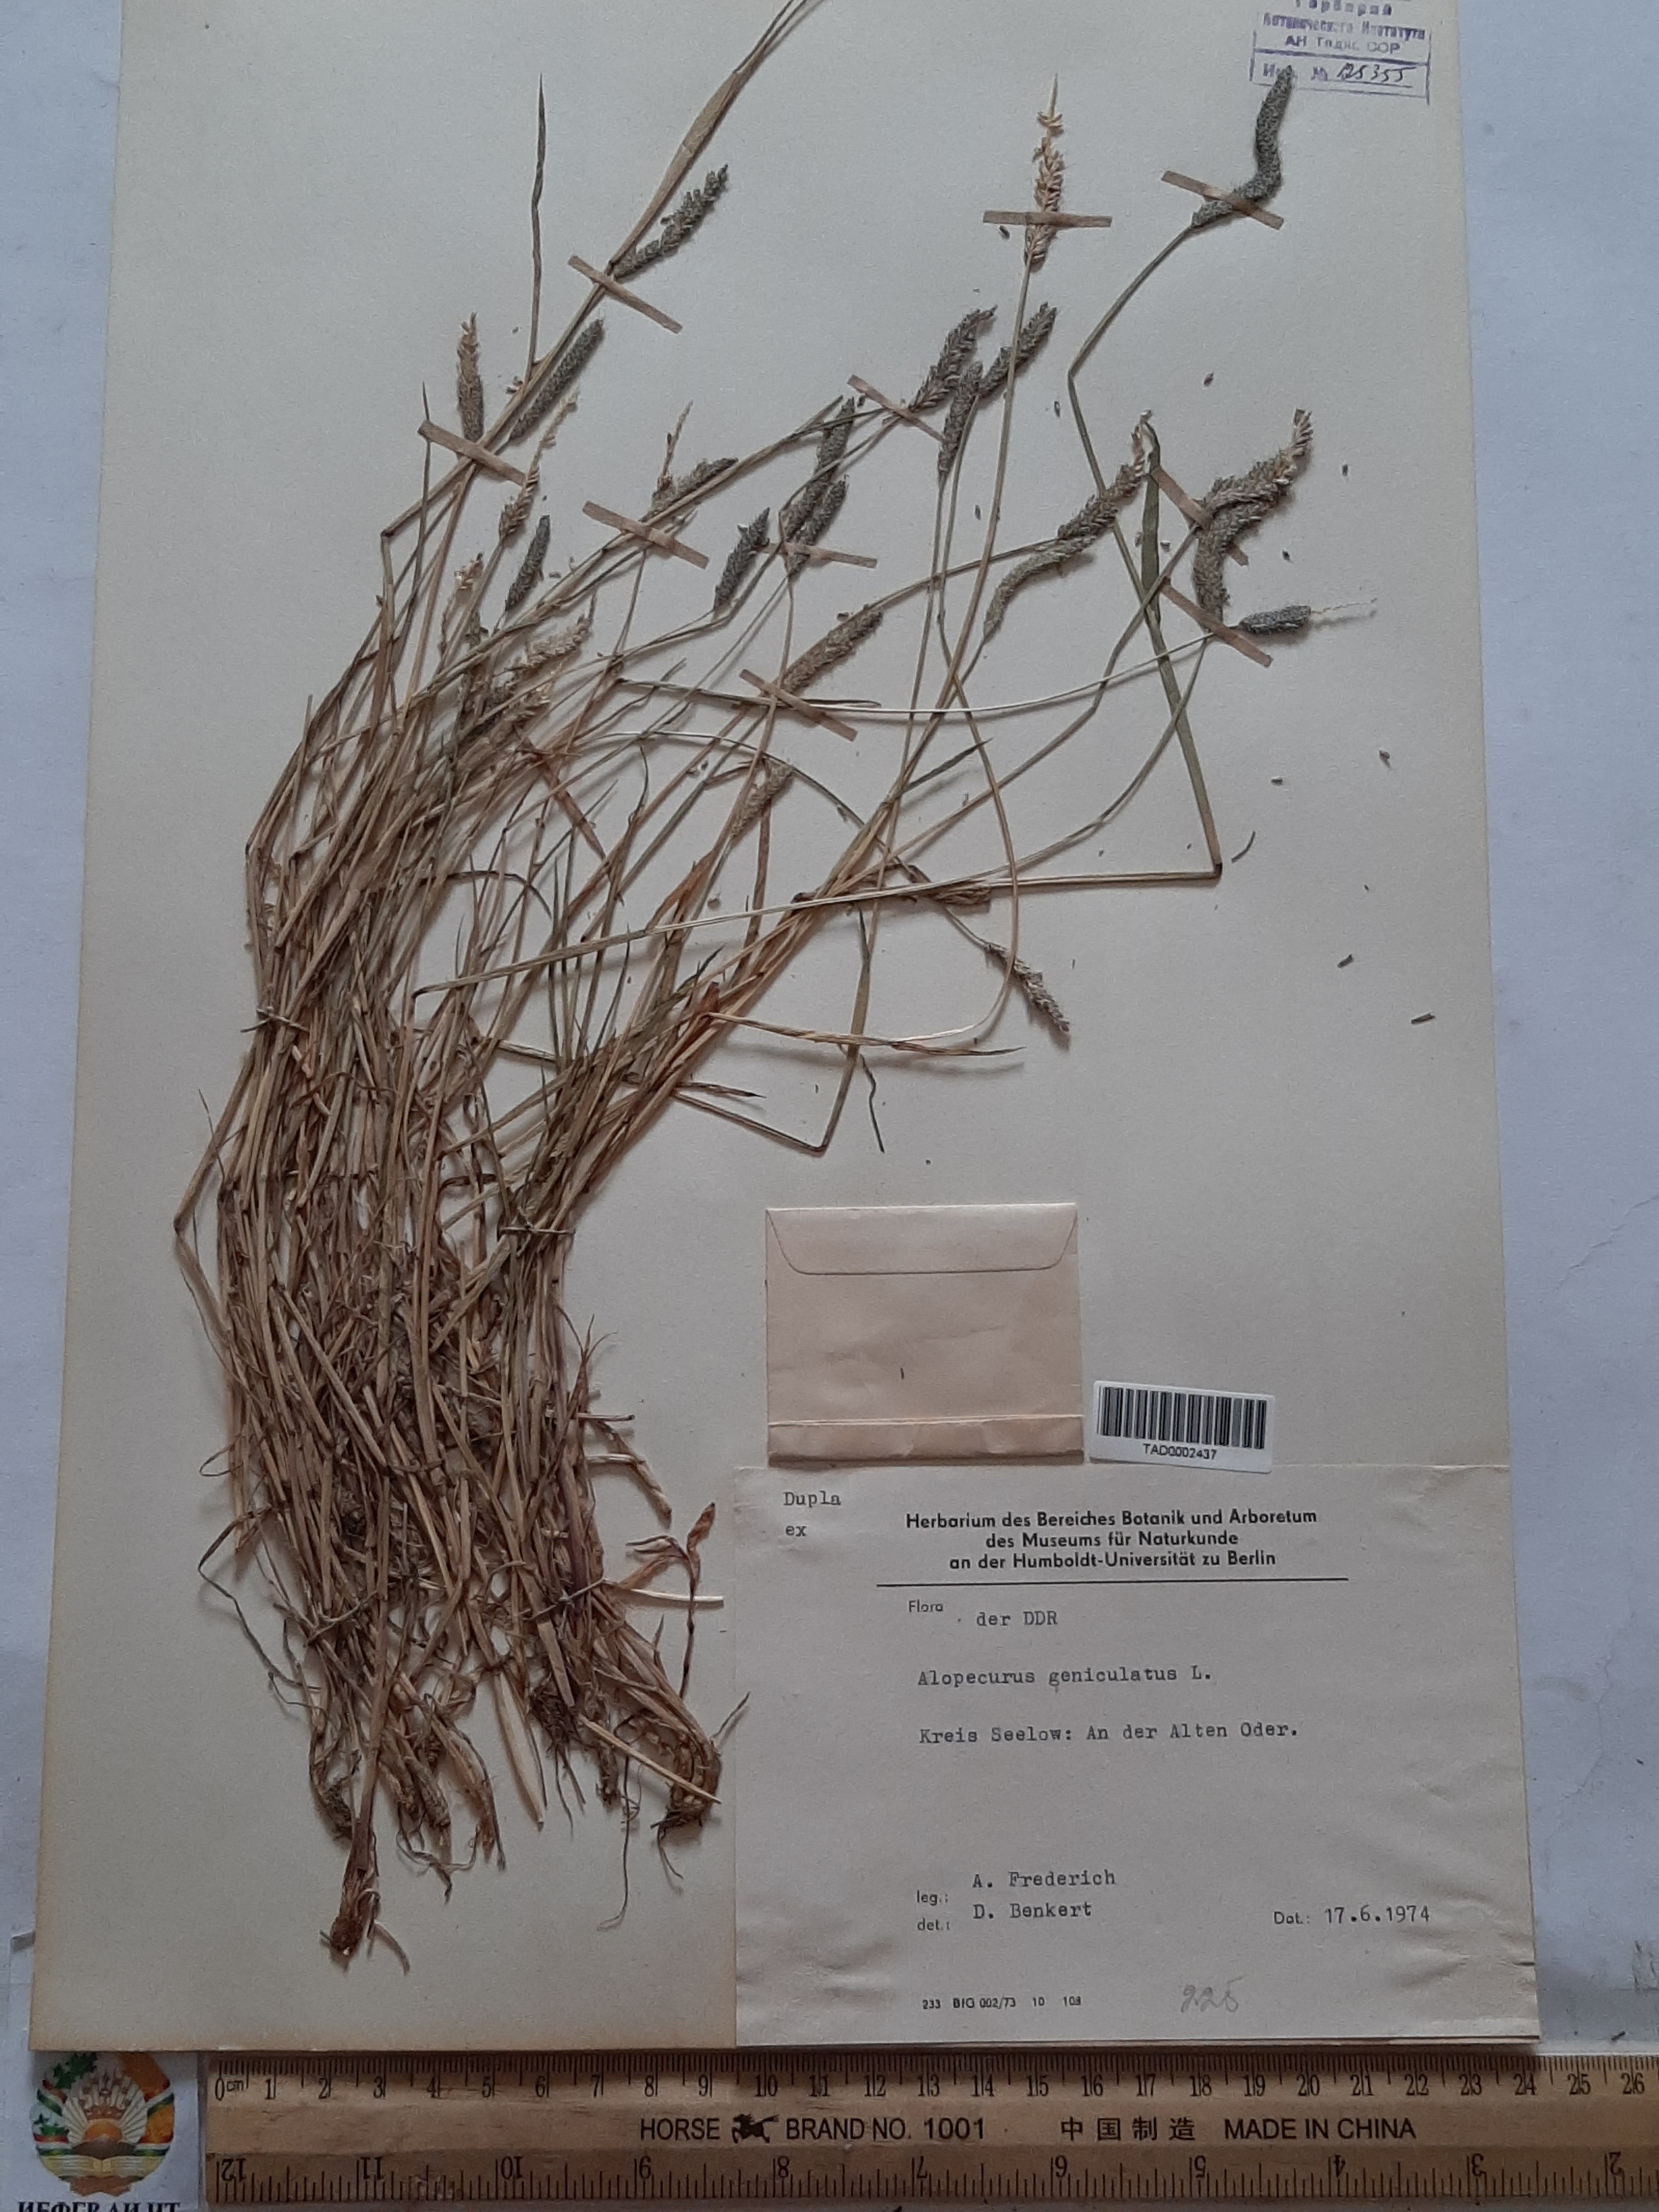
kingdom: Plantae
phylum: Tracheophyta
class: Liliopsida
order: Poales
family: Poaceae
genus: Alopecurus
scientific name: Alopecurus geniculatus
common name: Water foxtail
